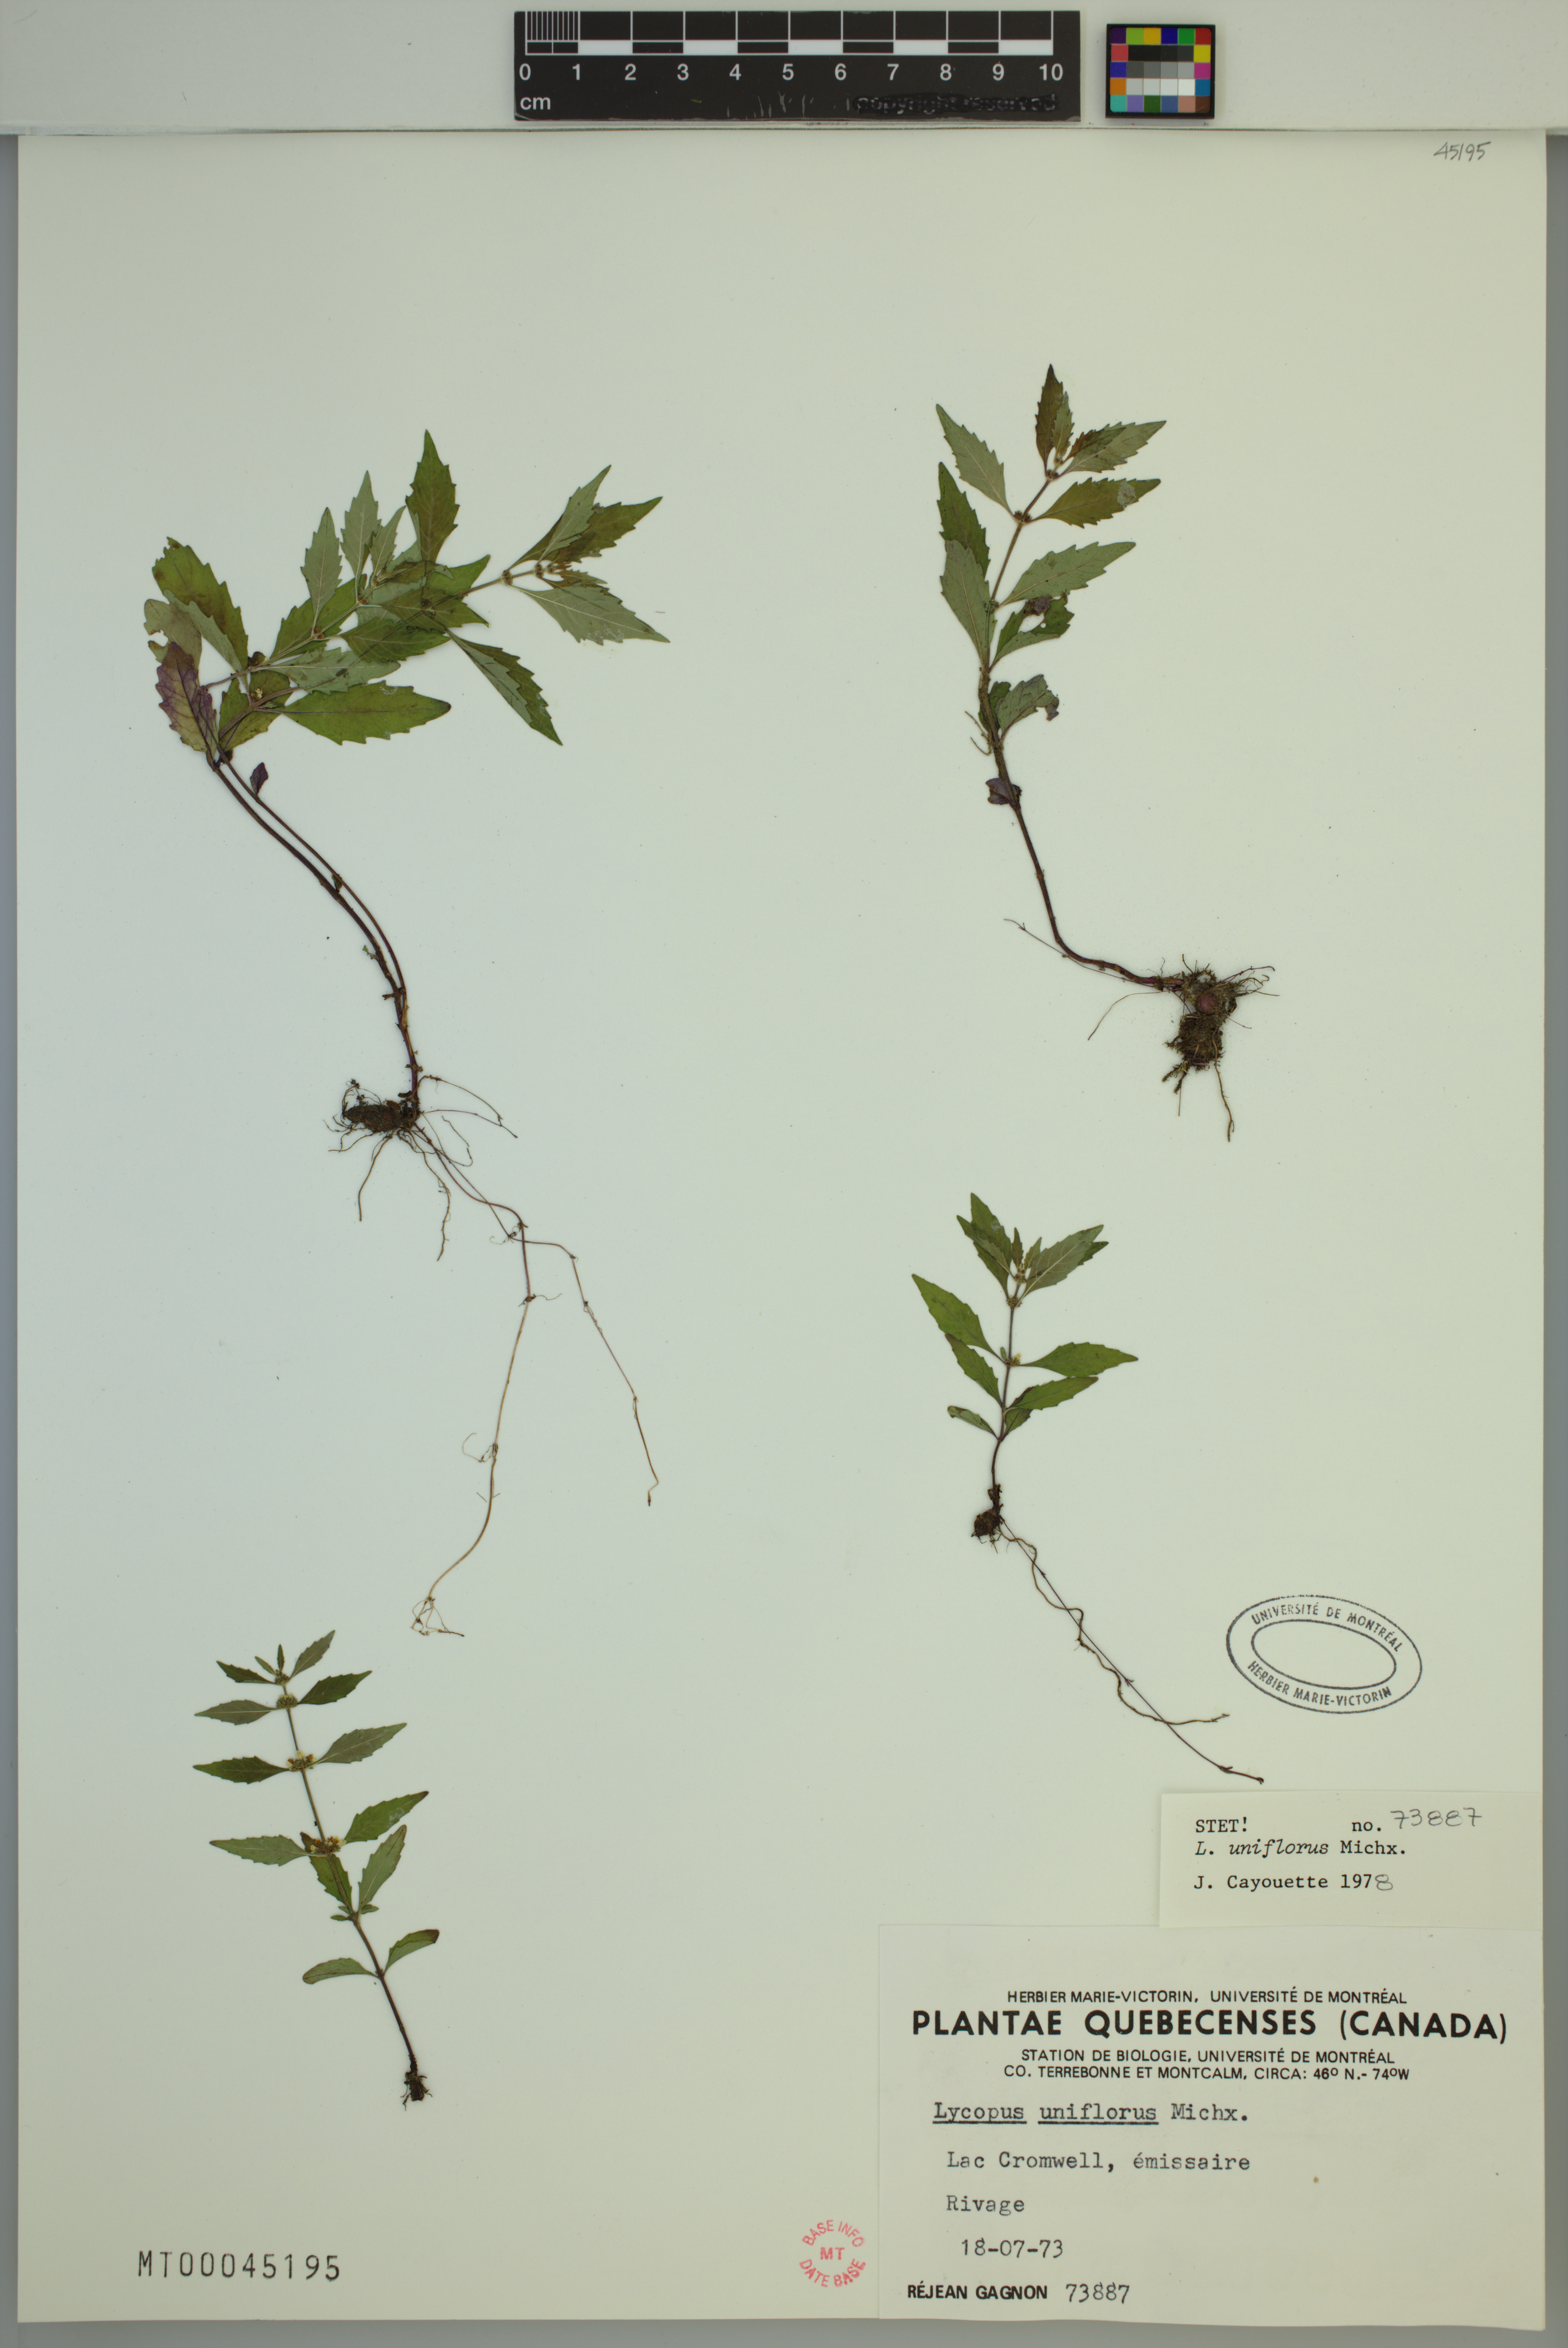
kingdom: Plantae
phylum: Tracheophyta
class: Magnoliopsida
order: Lamiales
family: Lamiaceae
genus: Lycopus
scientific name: Lycopus uniflorus
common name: Northern bugleweed
